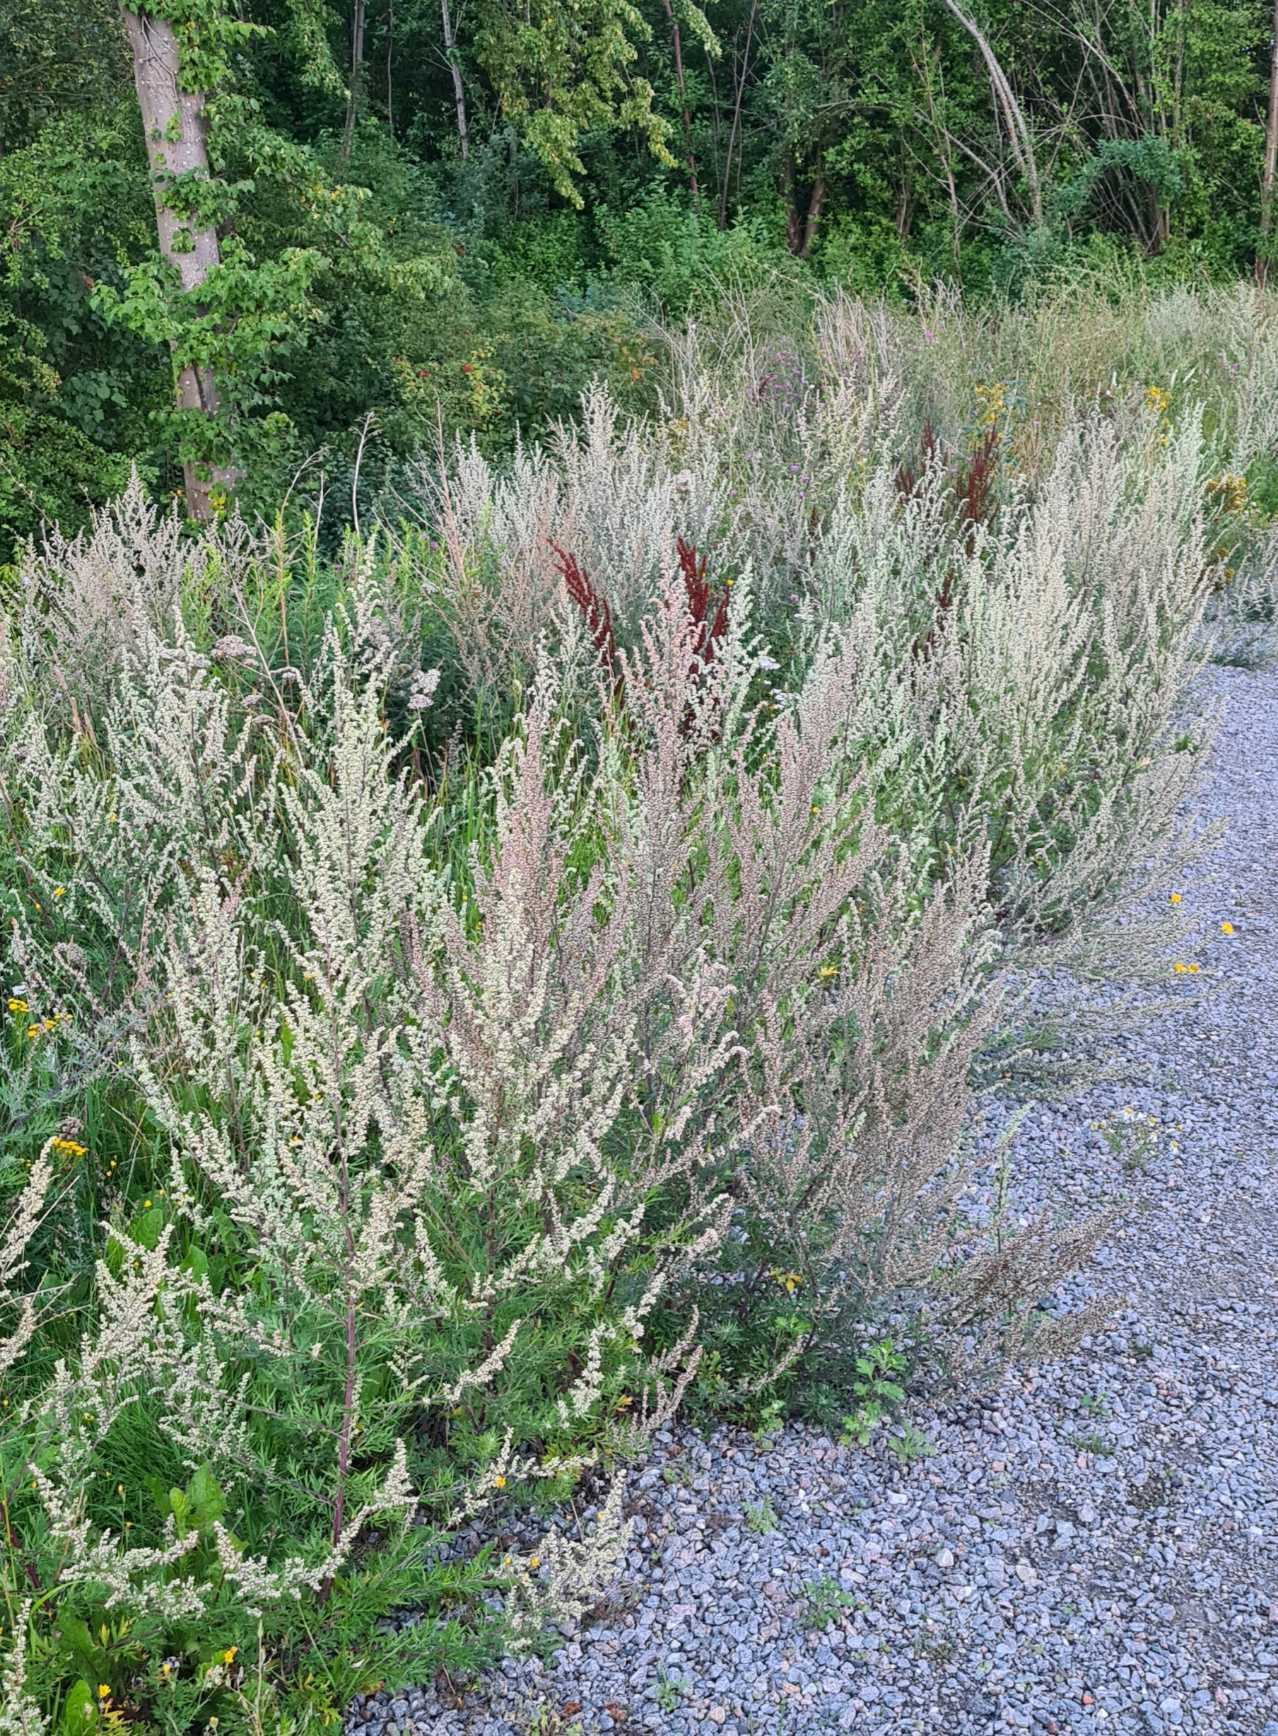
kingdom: Plantae
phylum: Tracheophyta
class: Magnoliopsida
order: Asterales
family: Asteraceae
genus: Artemisia
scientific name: Artemisia vulgaris
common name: Grå-bynke
